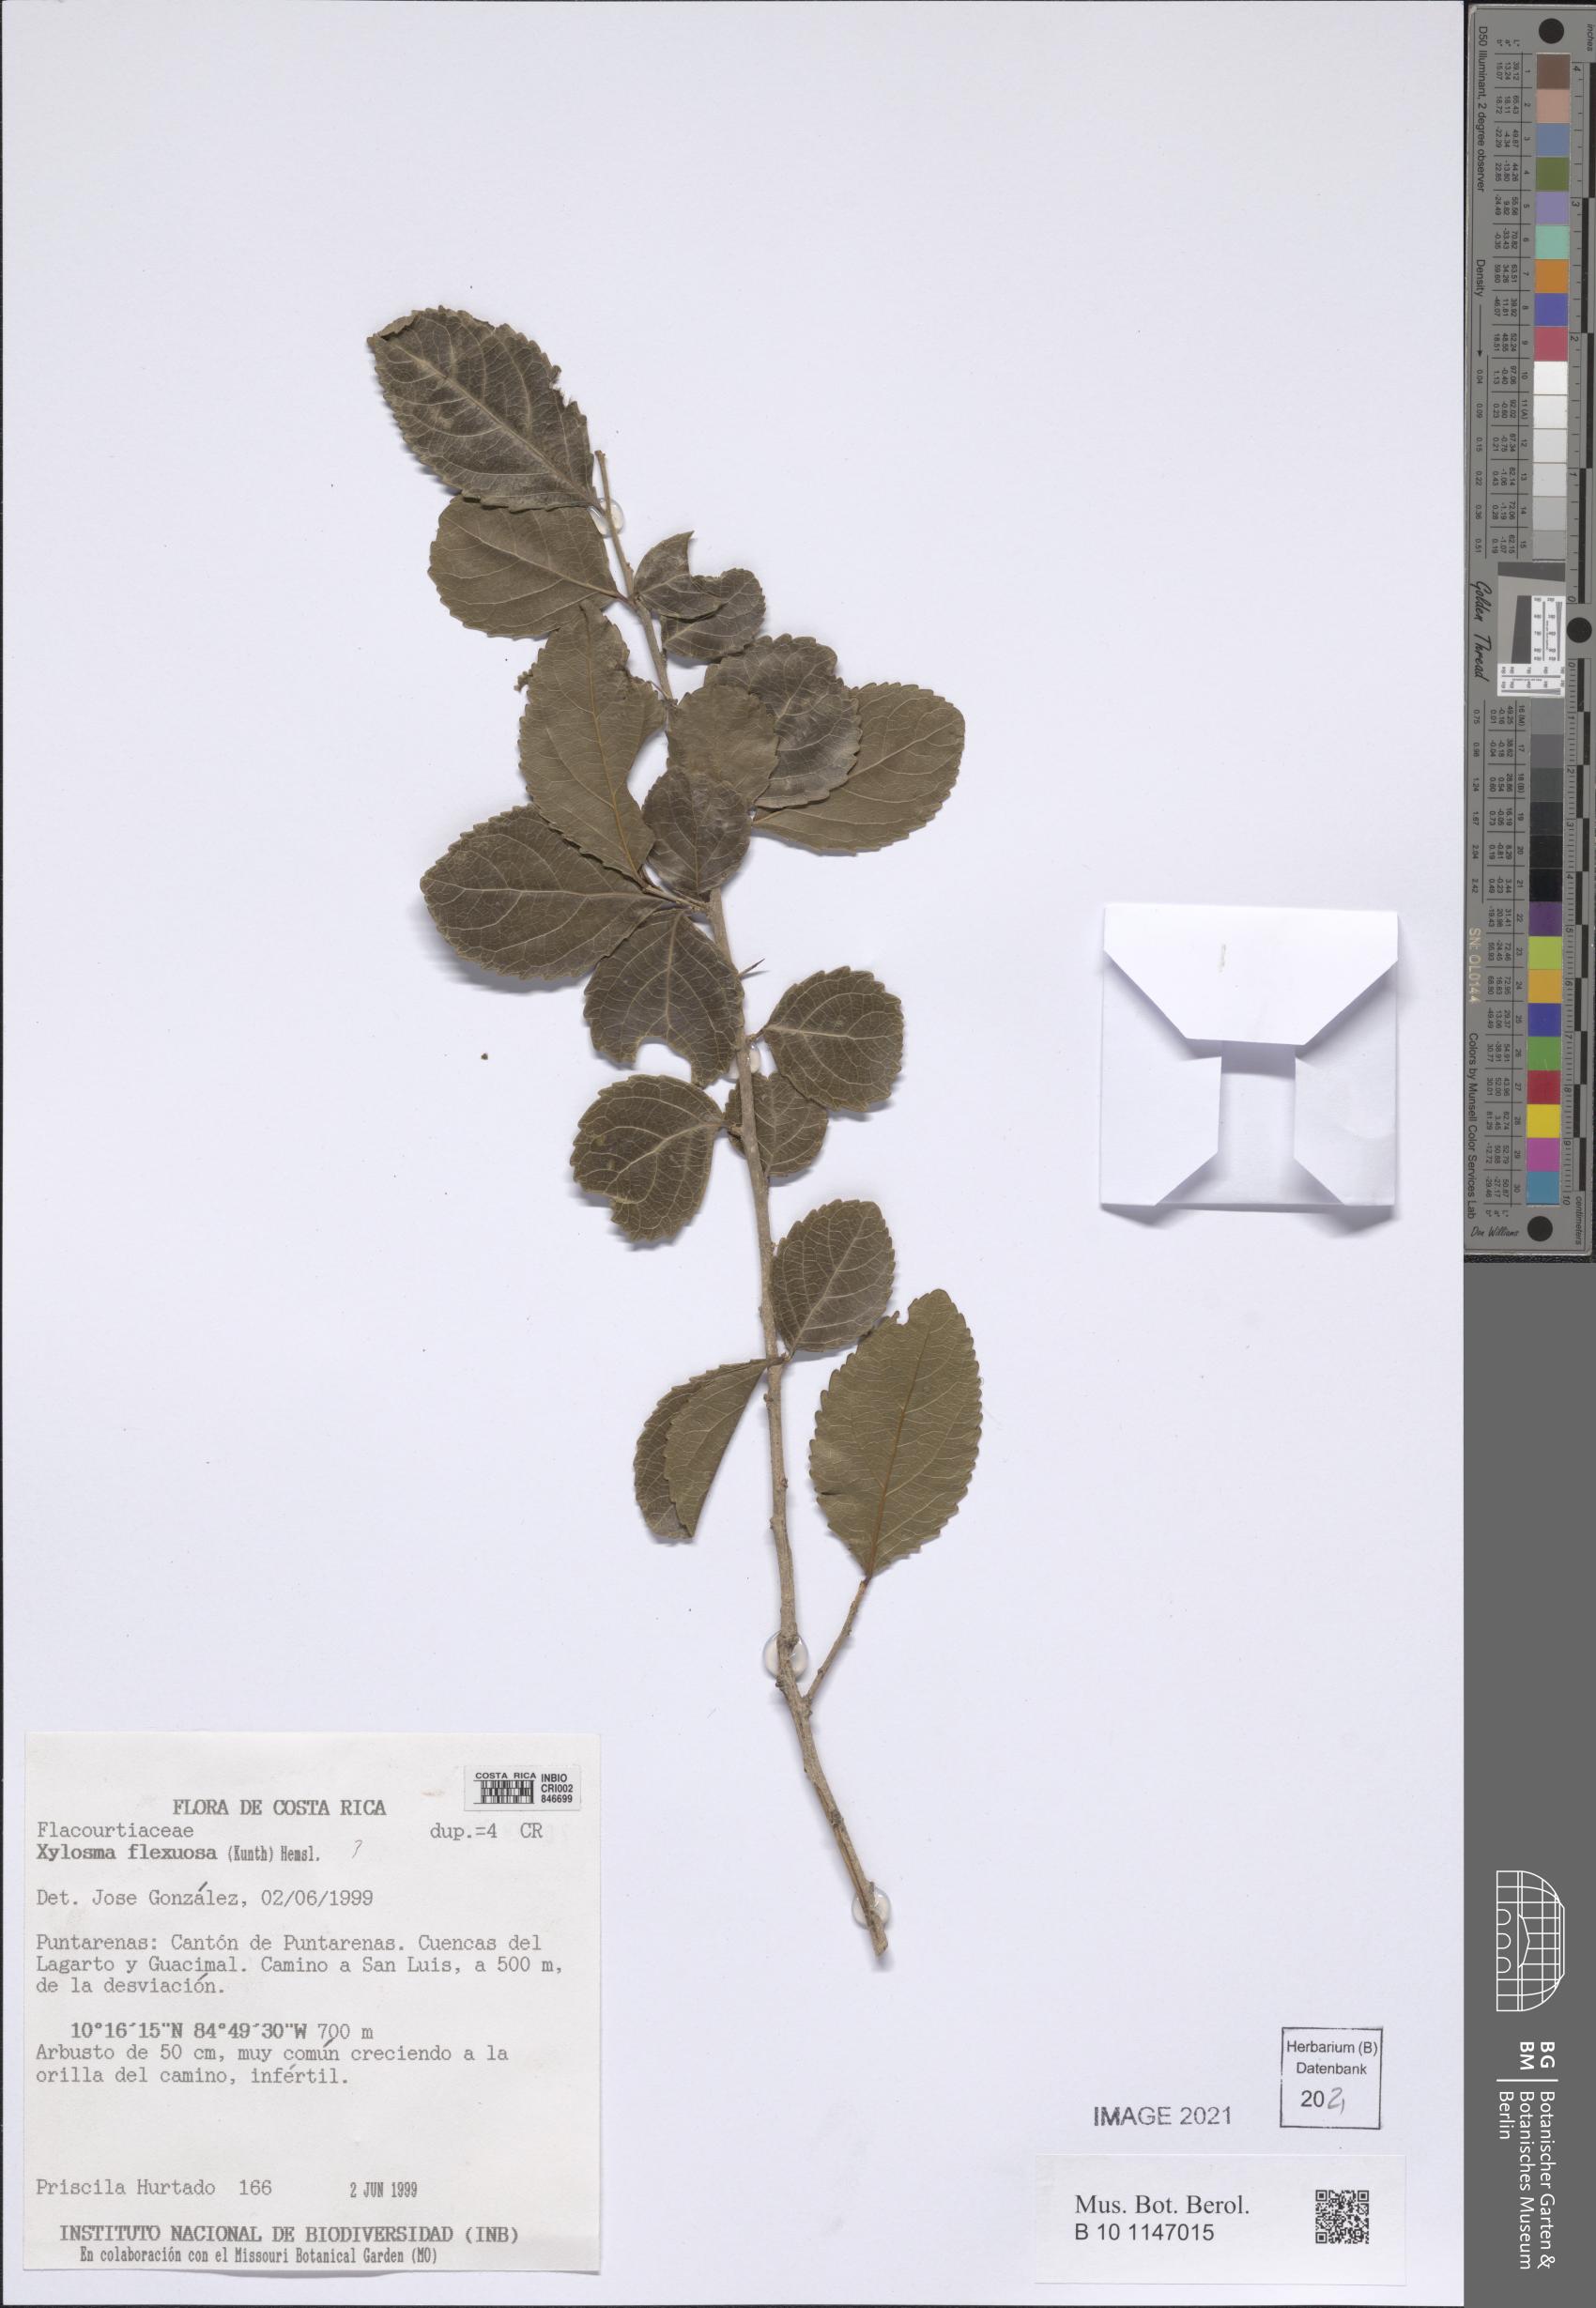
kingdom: Plantae
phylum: Tracheophyta
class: Magnoliopsida
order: Malpighiales
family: Salicaceae
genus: Xylosma
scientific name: Xylosma flexuosa
